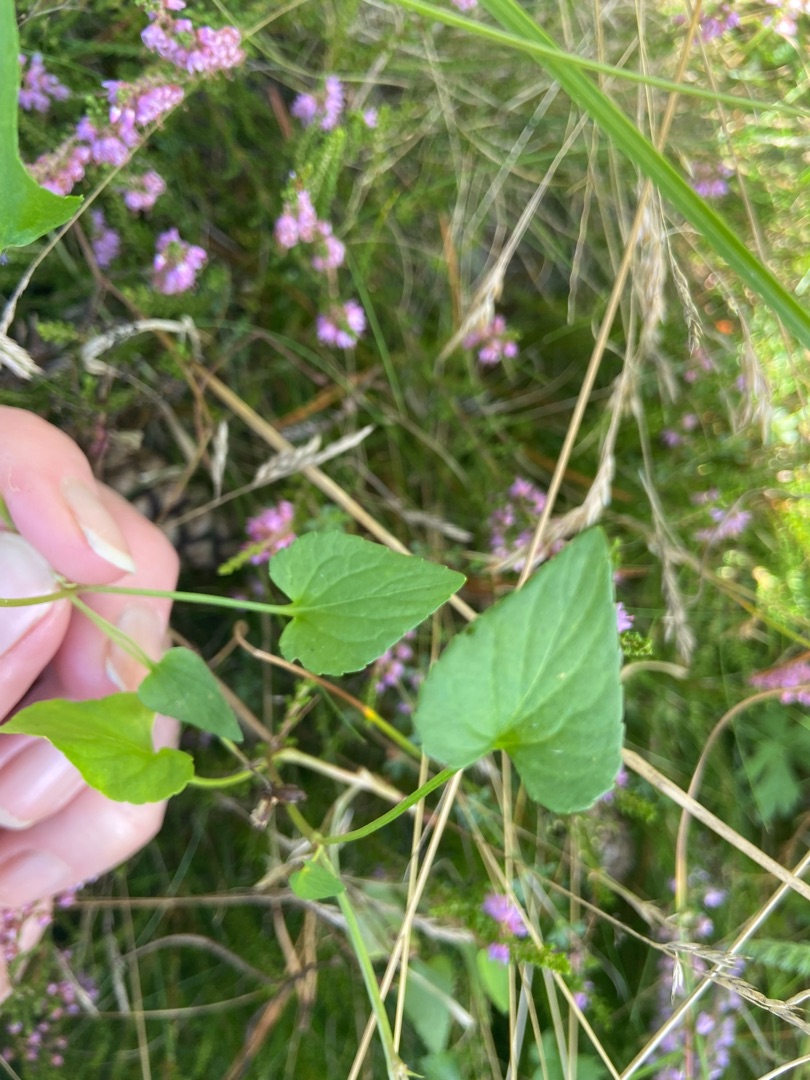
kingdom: Plantae
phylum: Tracheophyta
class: Magnoliopsida
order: Malpighiales
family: Violaceae
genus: Viola
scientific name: Viola canina
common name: Hunde-viol
